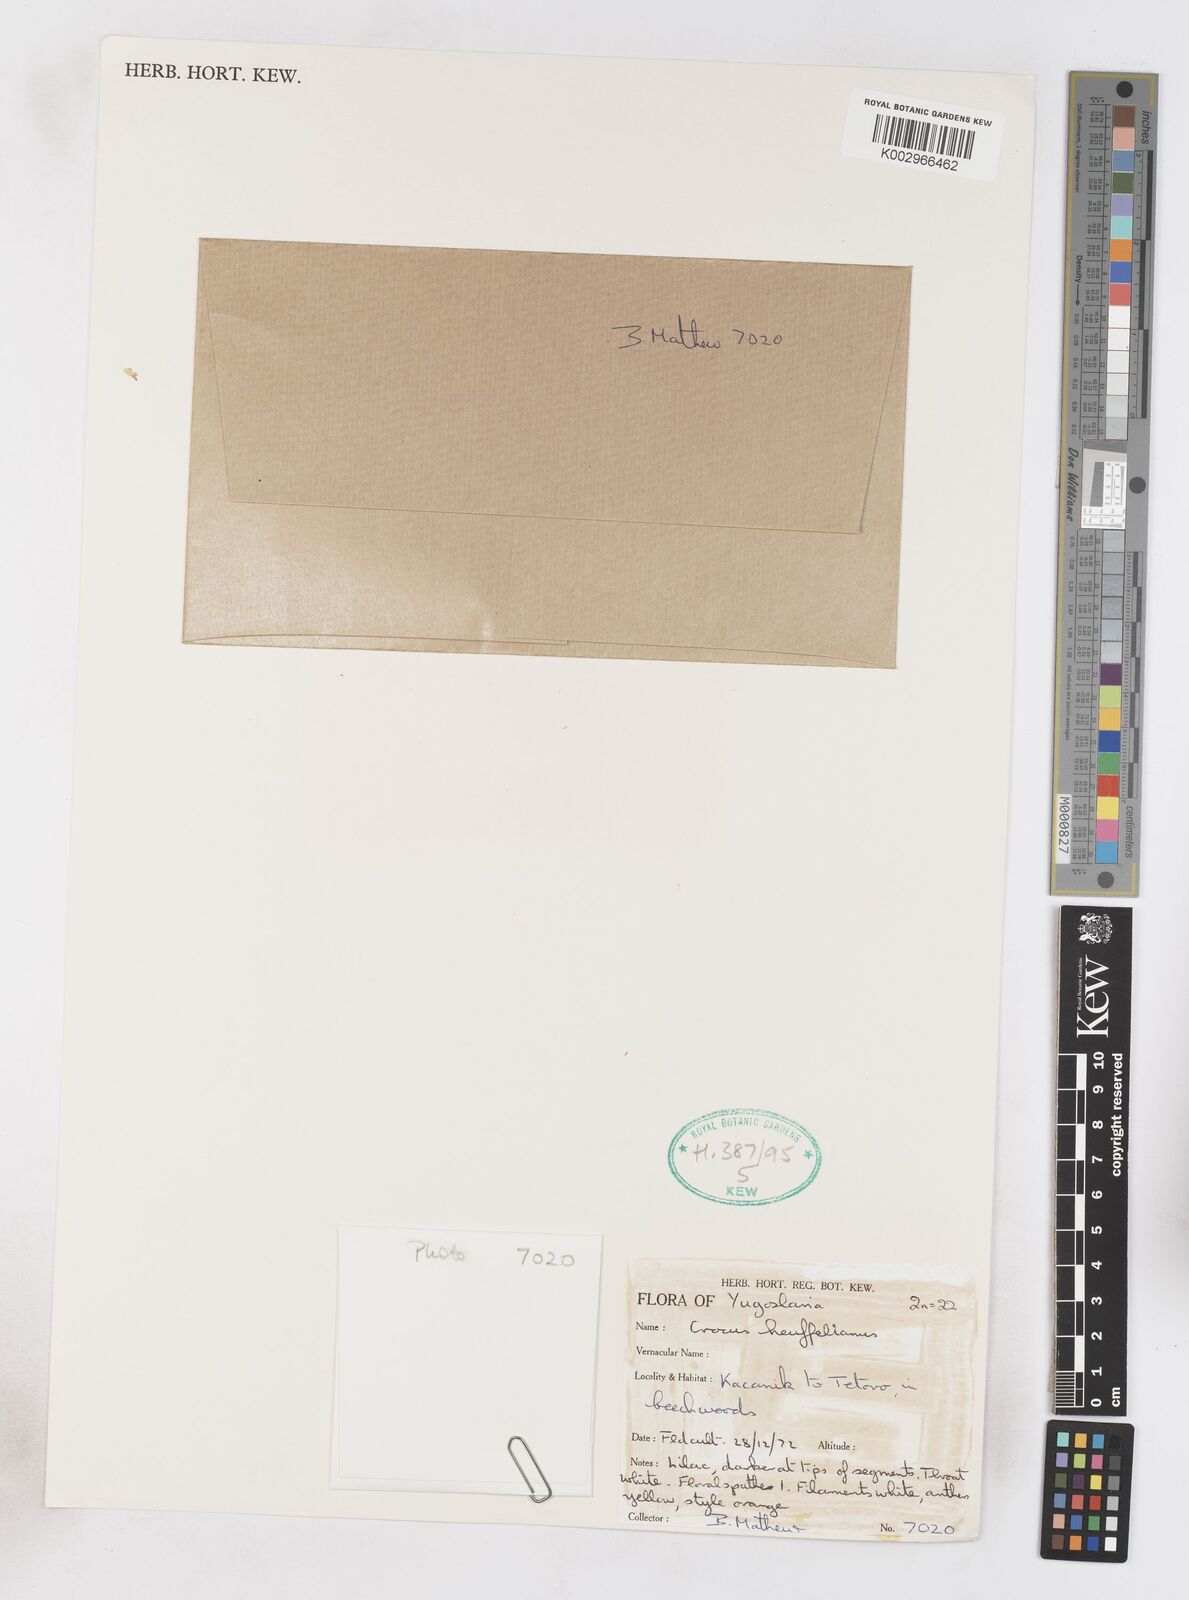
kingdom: Plantae
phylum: Tracheophyta
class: Liliopsida
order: Asparagales
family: Iridaceae
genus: Crocus
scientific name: Crocus vernus
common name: Spring crocus
